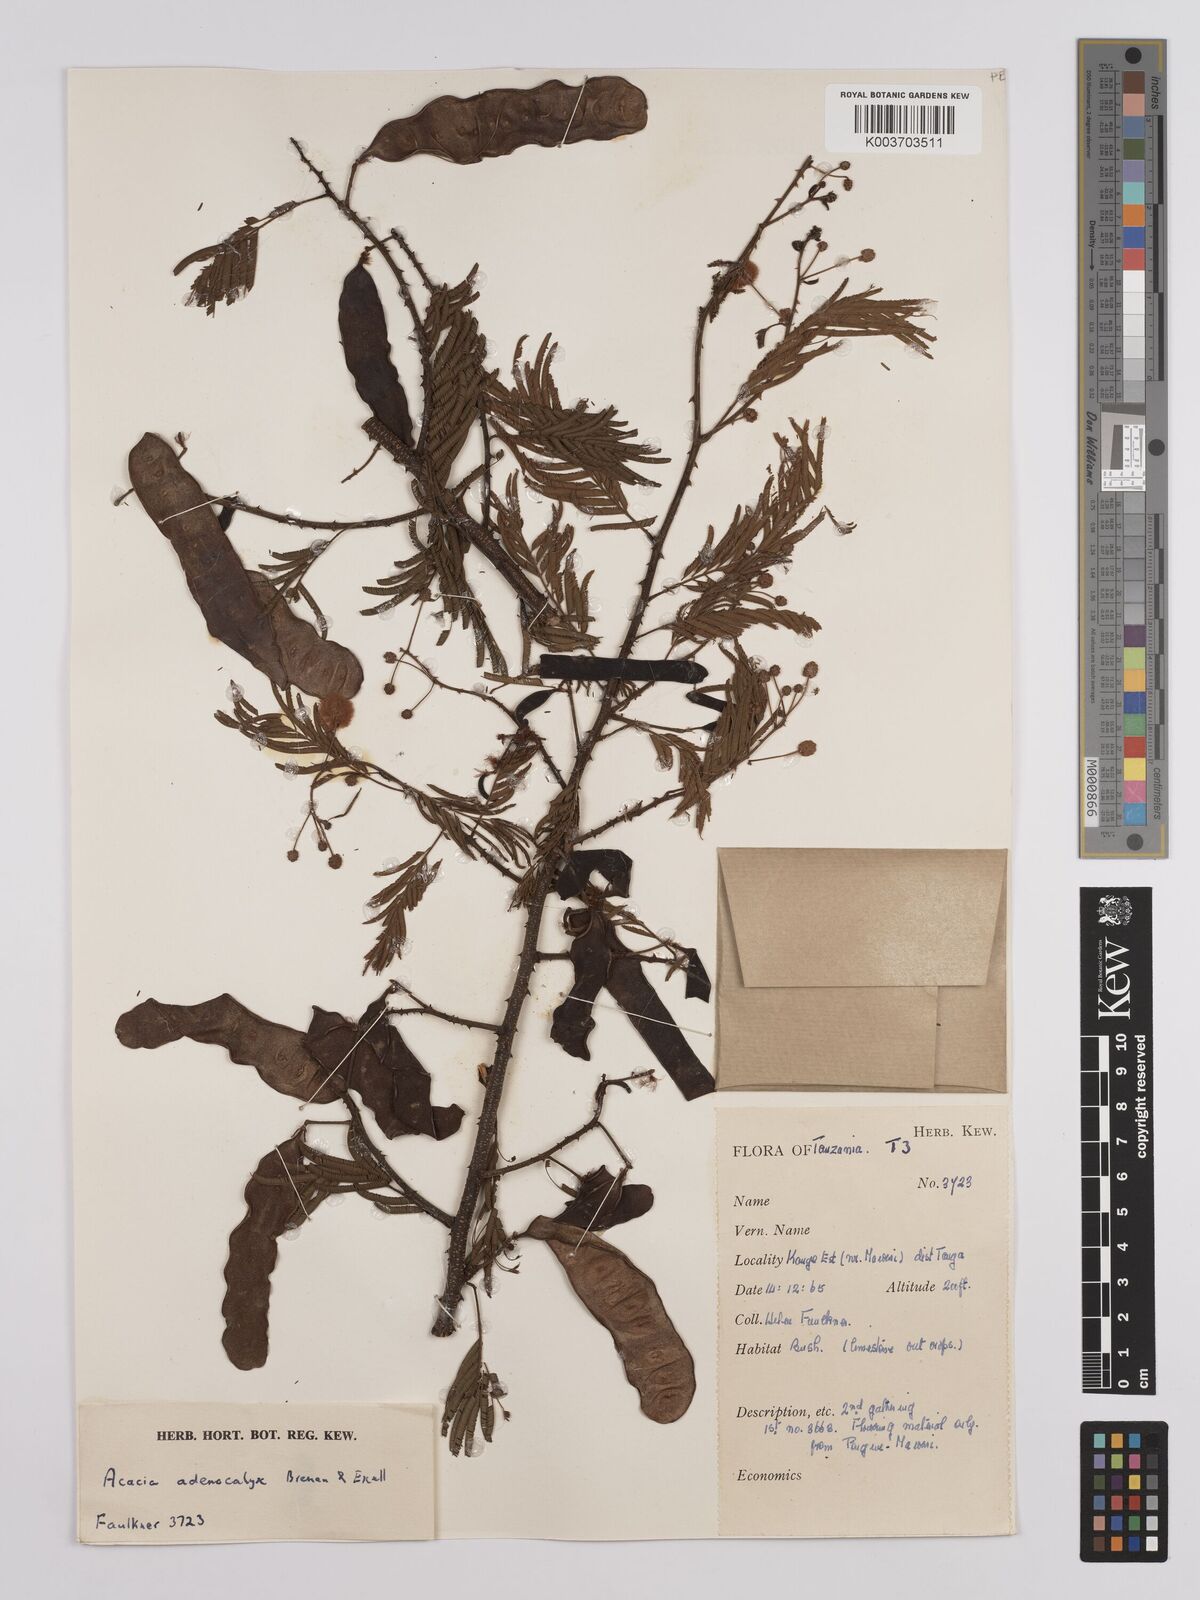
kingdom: Plantae
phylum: Tracheophyta
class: Magnoliopsida
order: Fabales
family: Fabaceae
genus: Senegalia
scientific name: Senegalia adenocalyx
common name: Pfurura
